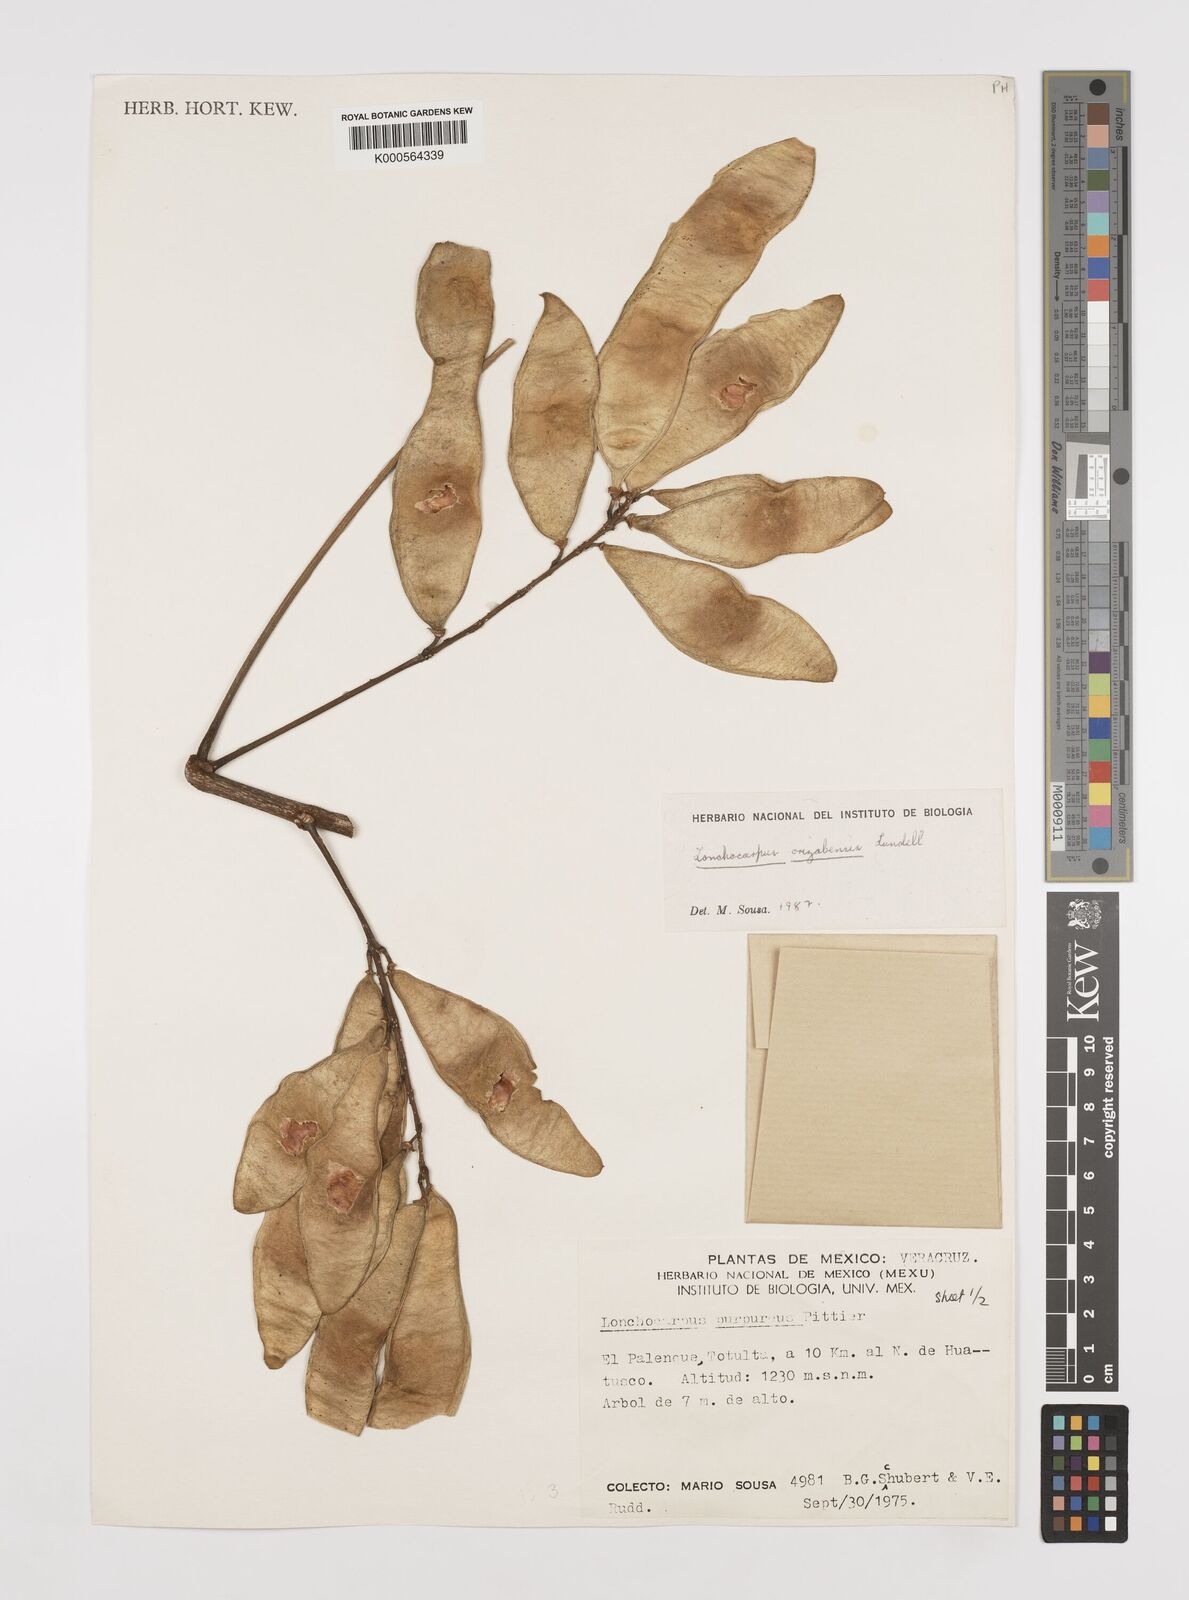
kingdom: Plantae
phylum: Tracheophyta
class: Magnoliopsida
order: Fabales
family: Fabaceae
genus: Lonchocarpus
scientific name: Lonchocarpus orizabensis
